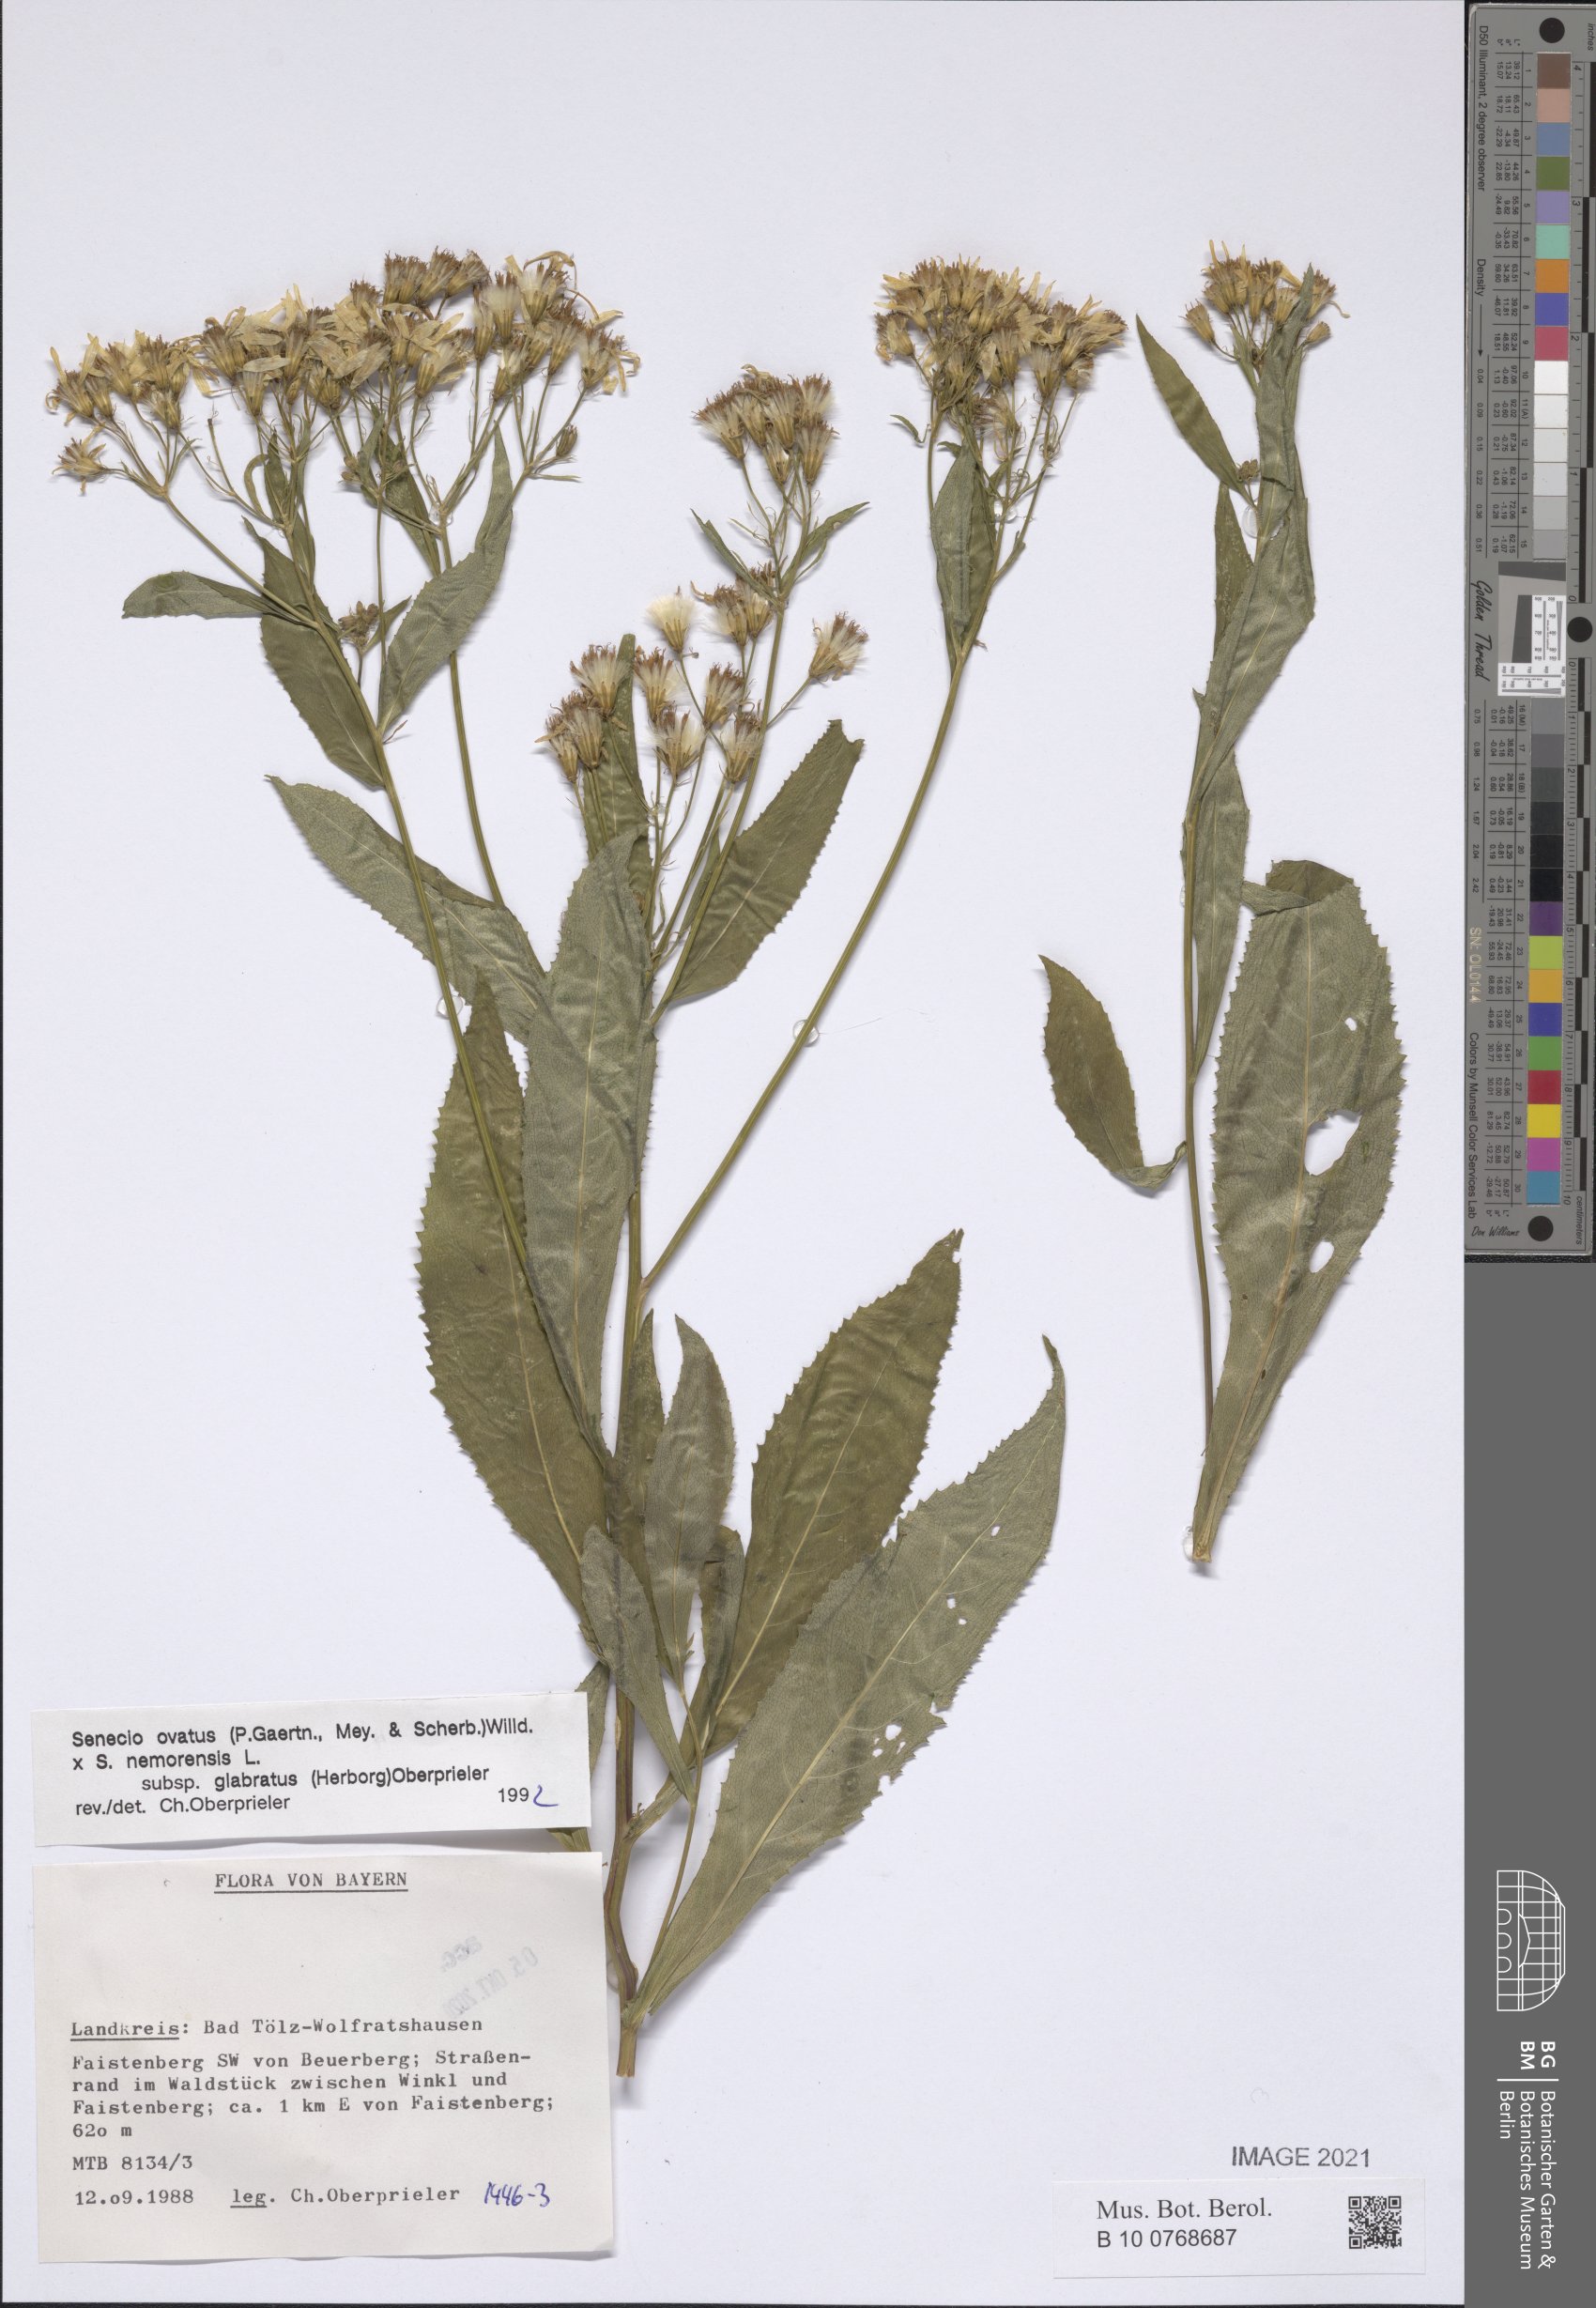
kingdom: Plantae
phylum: Tracheophyta
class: Magnoliopsida
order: Asterales
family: Asteraceae
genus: Senecio
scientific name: Senecio ovatus
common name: Wood ragwort
